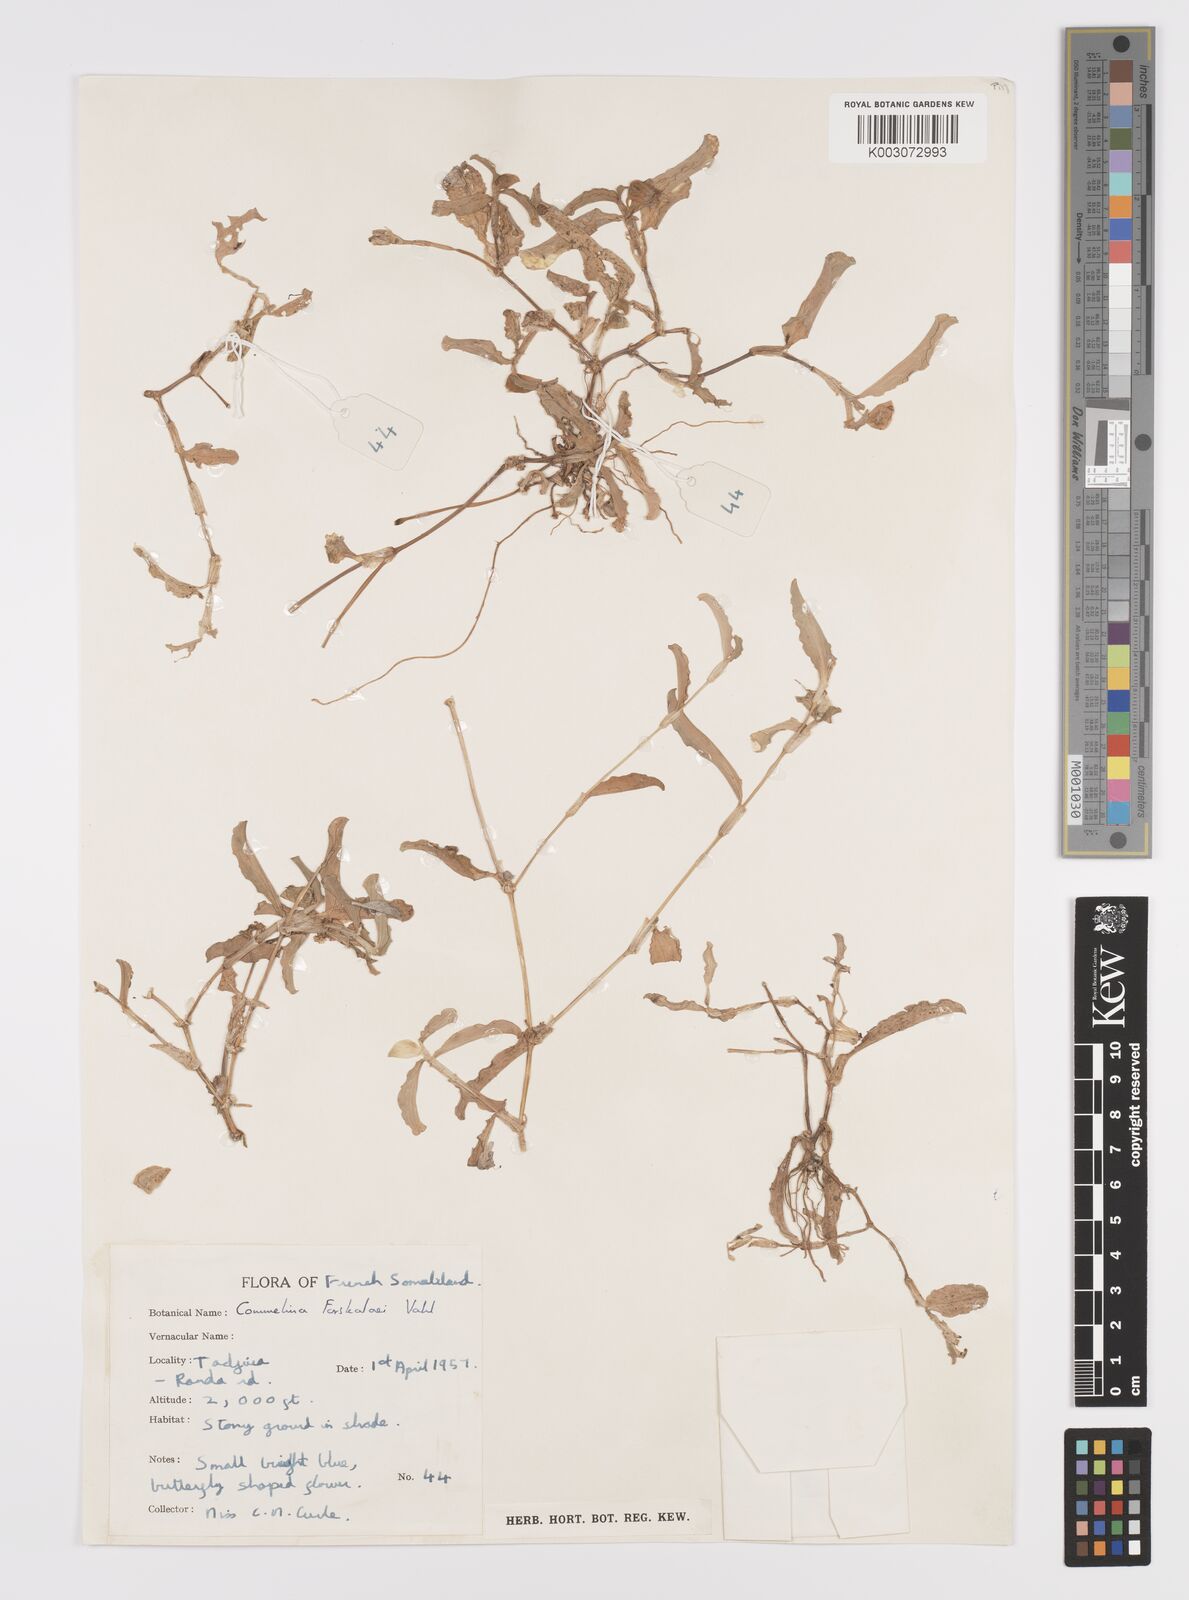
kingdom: Plantae
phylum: Tracheophyta
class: Liliopsida
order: Commelinales
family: Commelinaceae
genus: Commelina
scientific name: Commelina forskaolii
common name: Rat's ear
